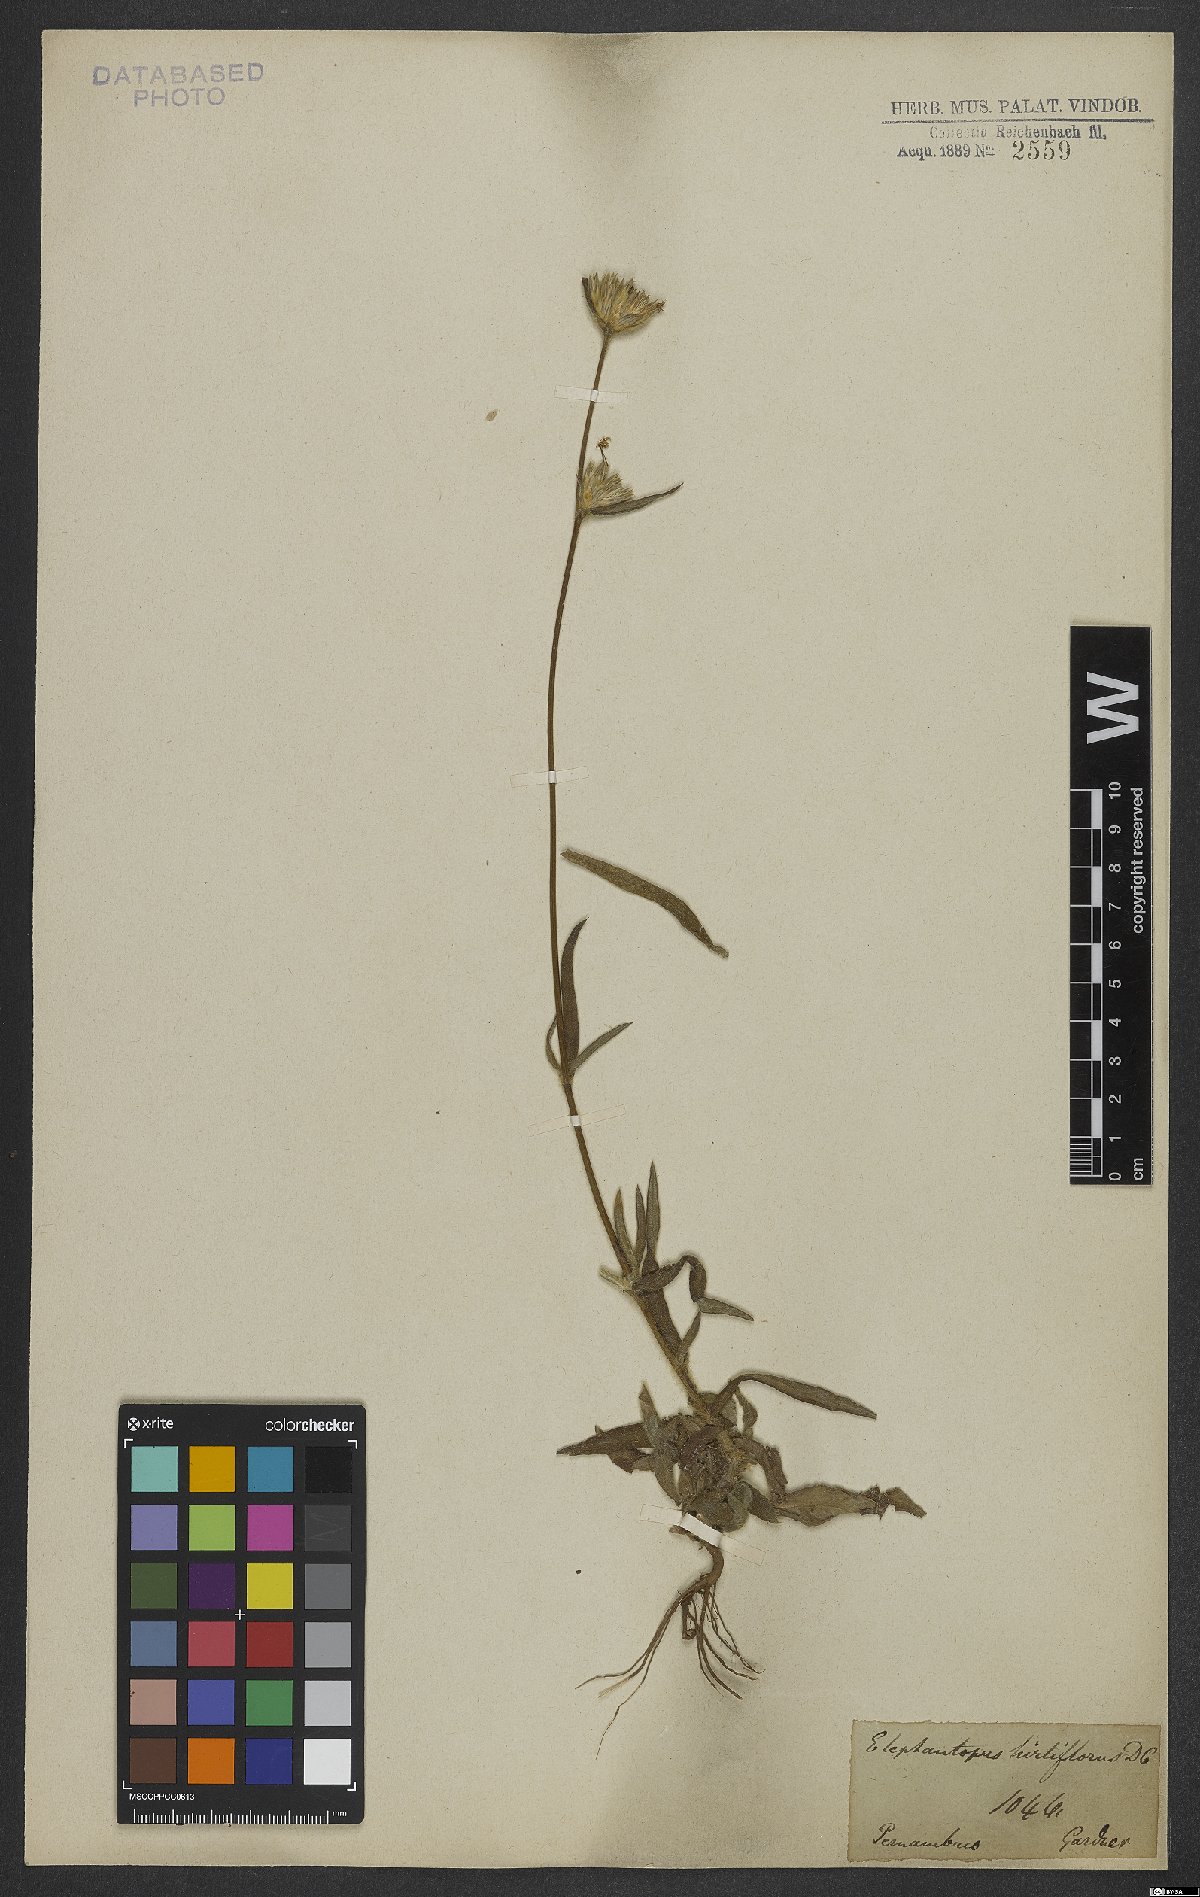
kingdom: Plantae
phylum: Tracheophyta
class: Magnoliopsida
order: Asterales
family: Asteraceae
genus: Elephantopus
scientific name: Elephantopus hirtiflorus
